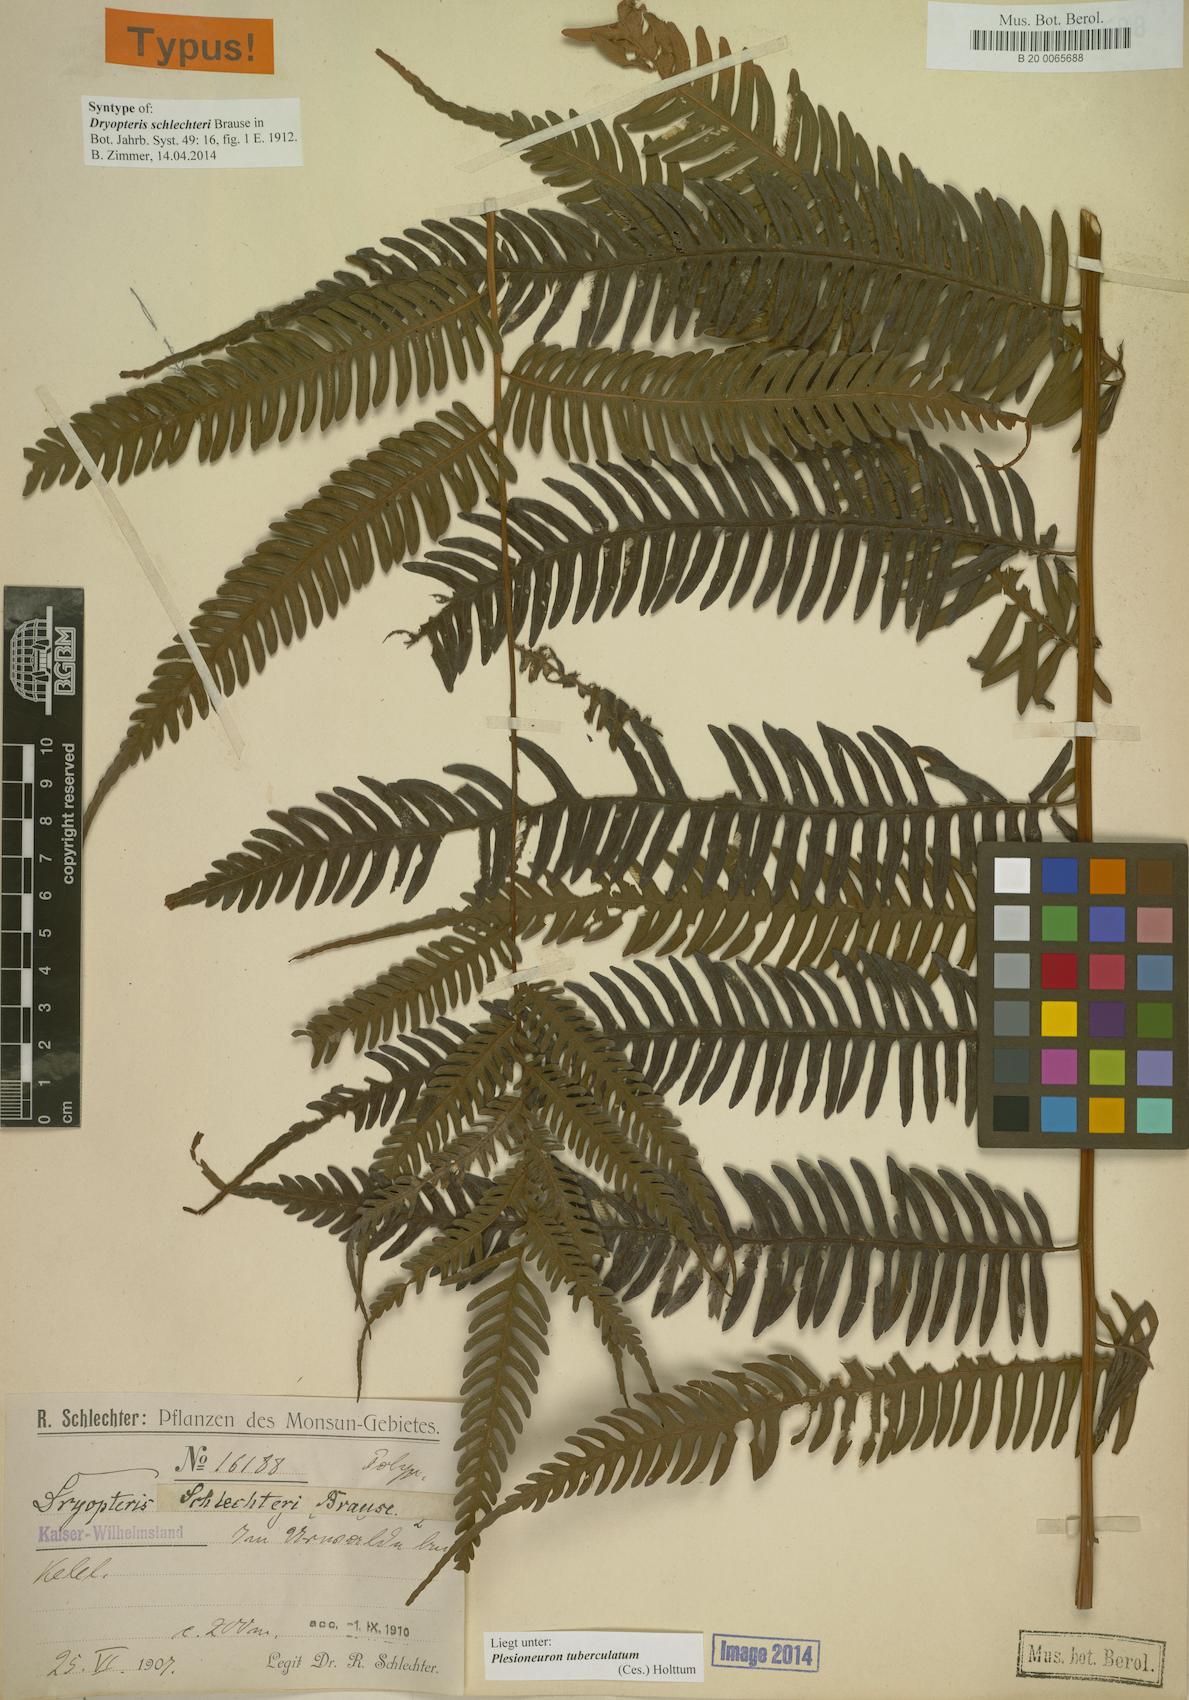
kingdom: Plantae
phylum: Tracheophyta
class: Polypodiopsida
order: Polypodiales
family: Thelypteridaceae
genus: Plesioneuron
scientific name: Plesioneuron tuberculatum
